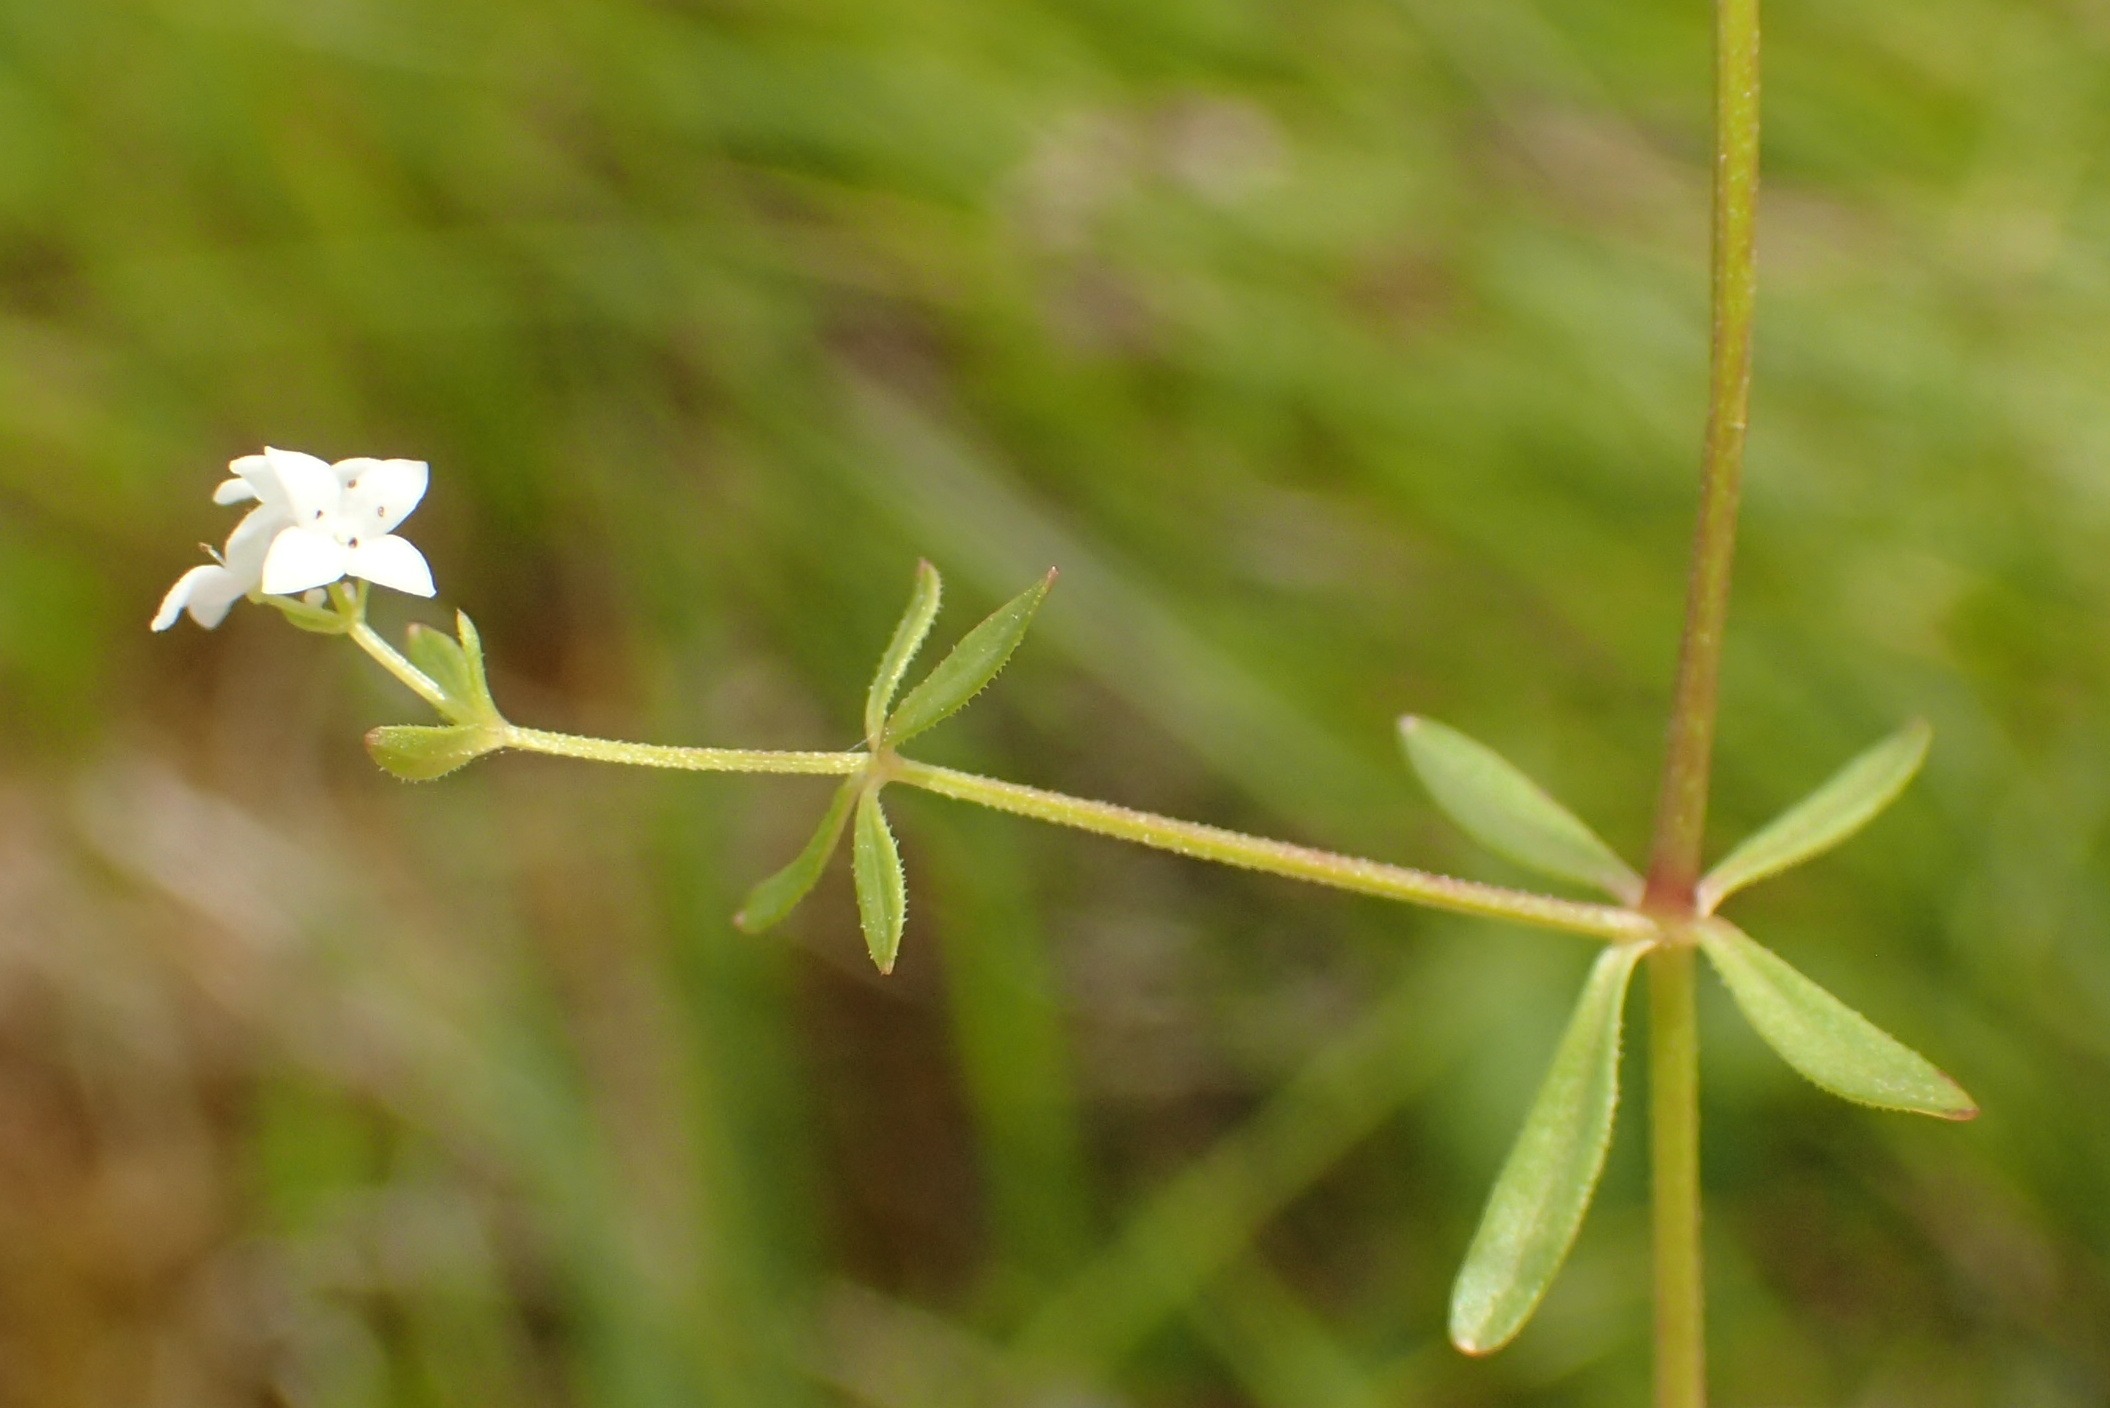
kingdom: Plantae
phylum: Tracheophyta
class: Magnoliopsida
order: Gentianales
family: Rubiaceae
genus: Galium
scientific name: Galium palustre
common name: Kær-snerre
